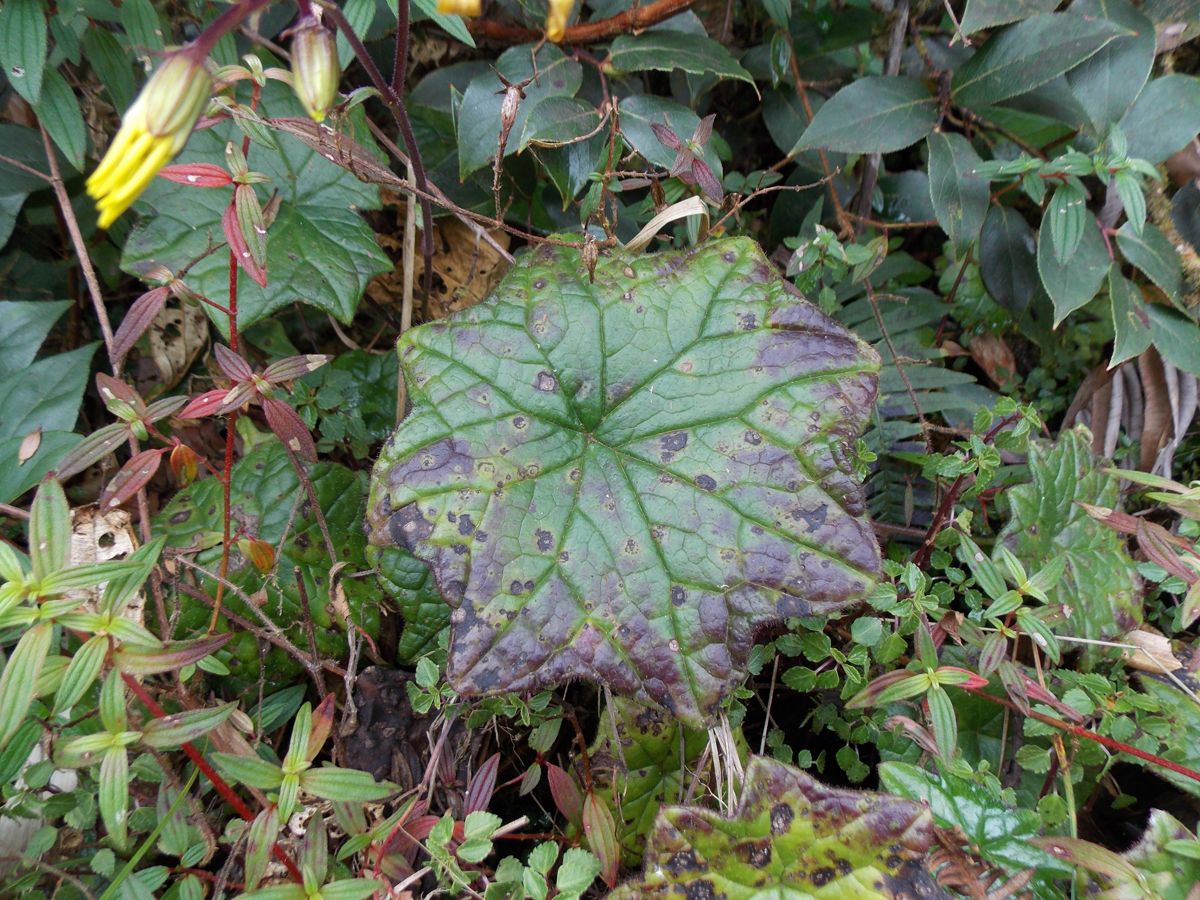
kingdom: Plantae
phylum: Tracheophyta
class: Magnoliopsida
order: Asterales
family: Asteraceae
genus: Psacaliopsis
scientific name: Psacaliopsis
